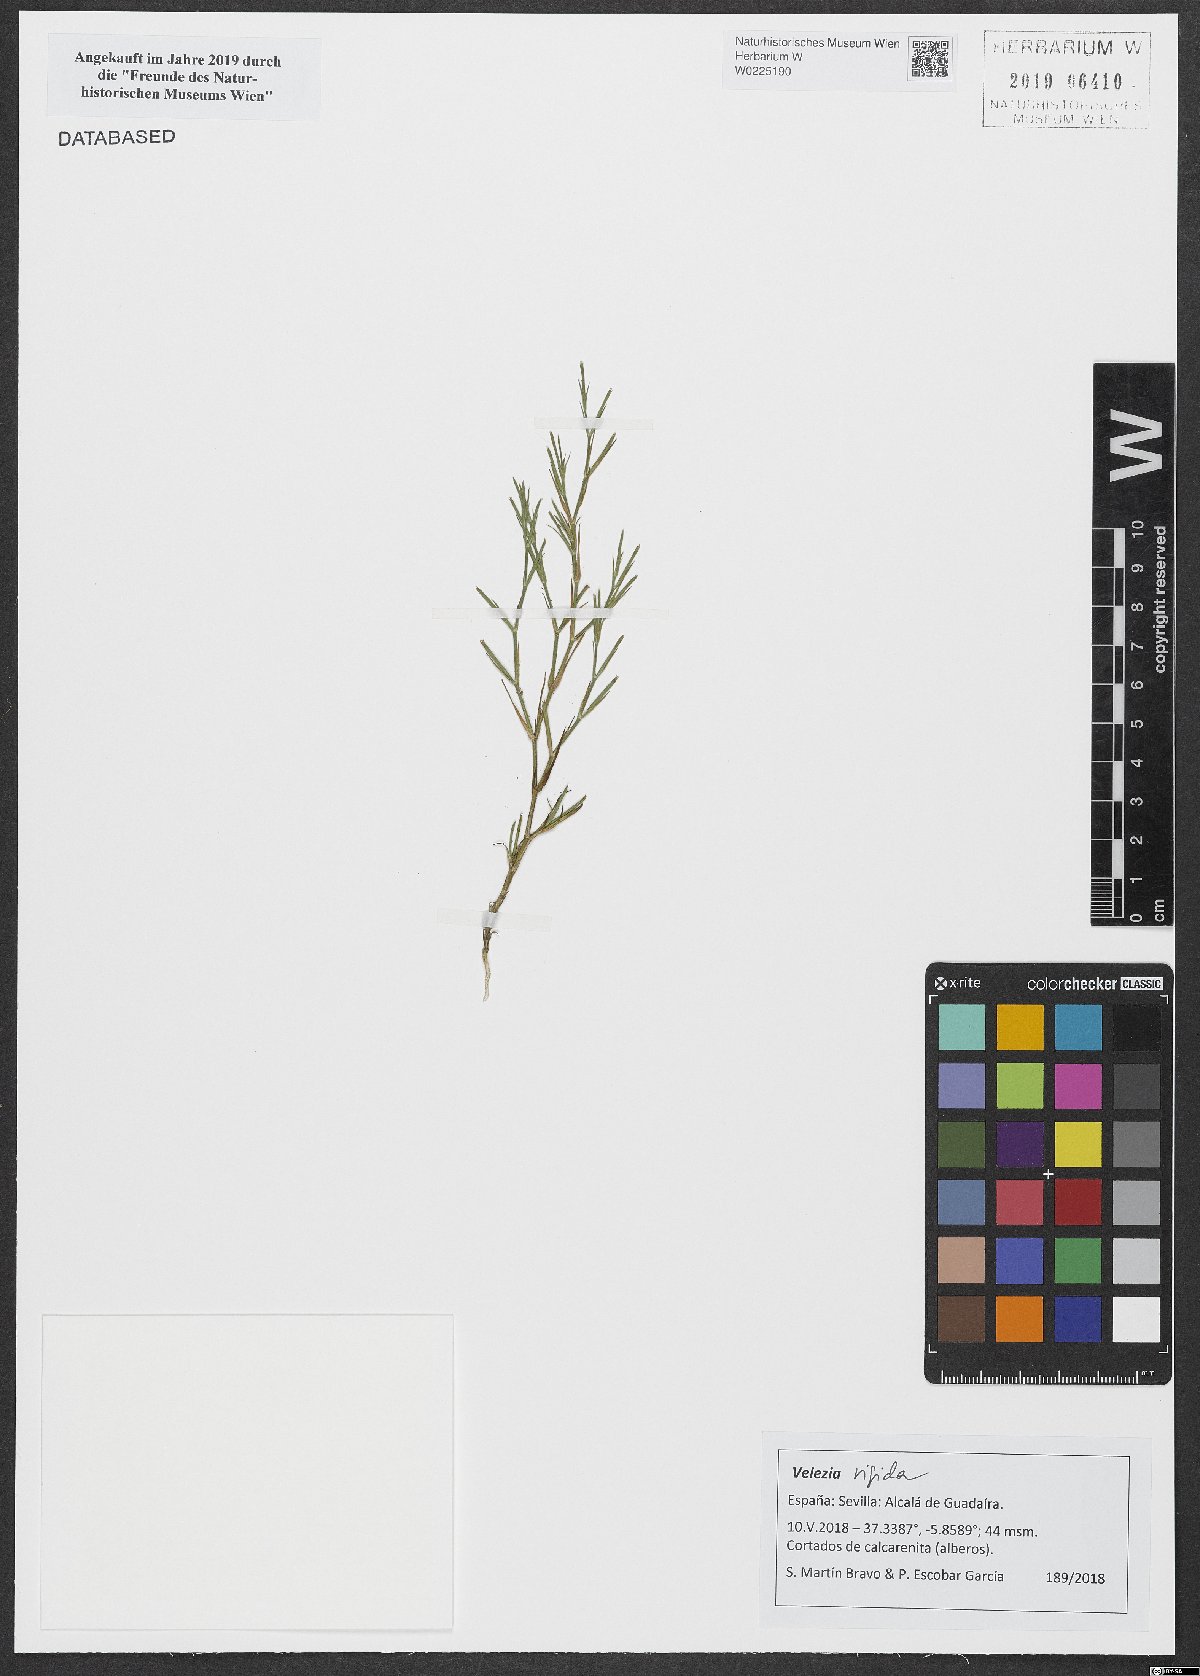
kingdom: Plantae
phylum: Tracheophyta
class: Magnoliopsida
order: Caryophyllales
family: Caryophyllaceae
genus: Dianthus
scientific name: Dianthus nudiflorus
